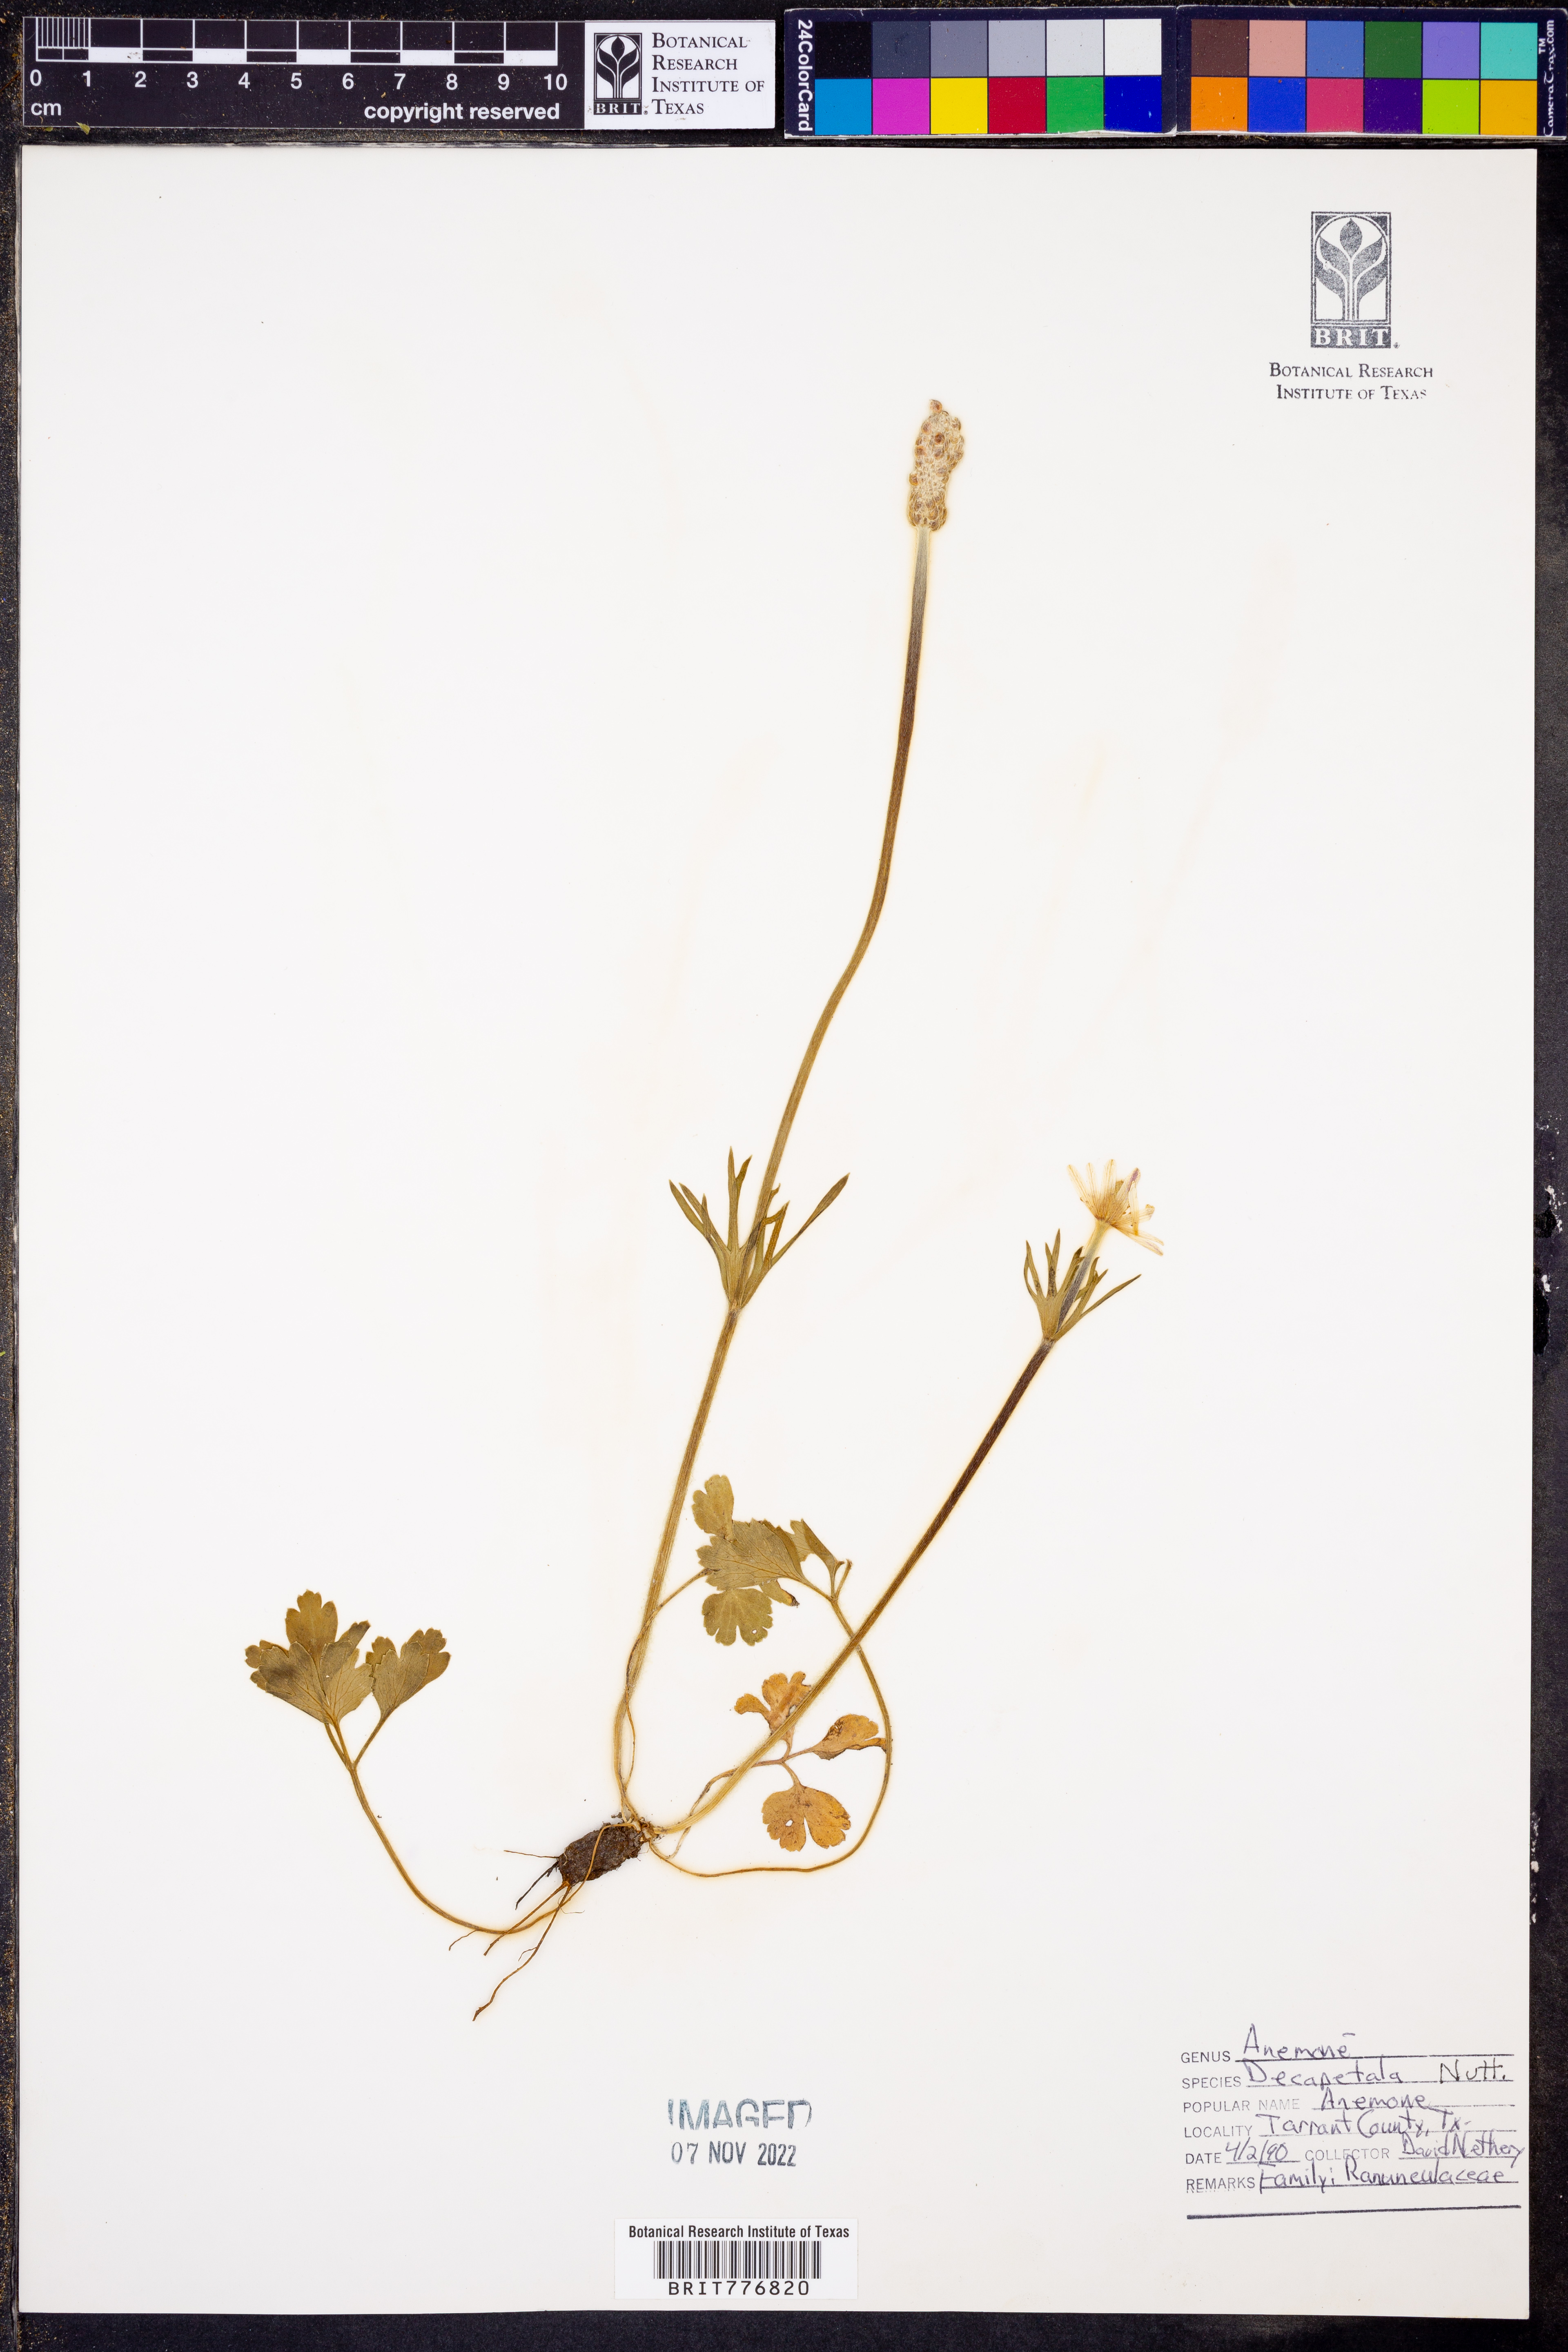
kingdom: Plantae
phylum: Tracheophyta
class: Magnoliopsida
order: Ranunculales
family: Ranunculaceae
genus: Anemone
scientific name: Anemone decapetala
